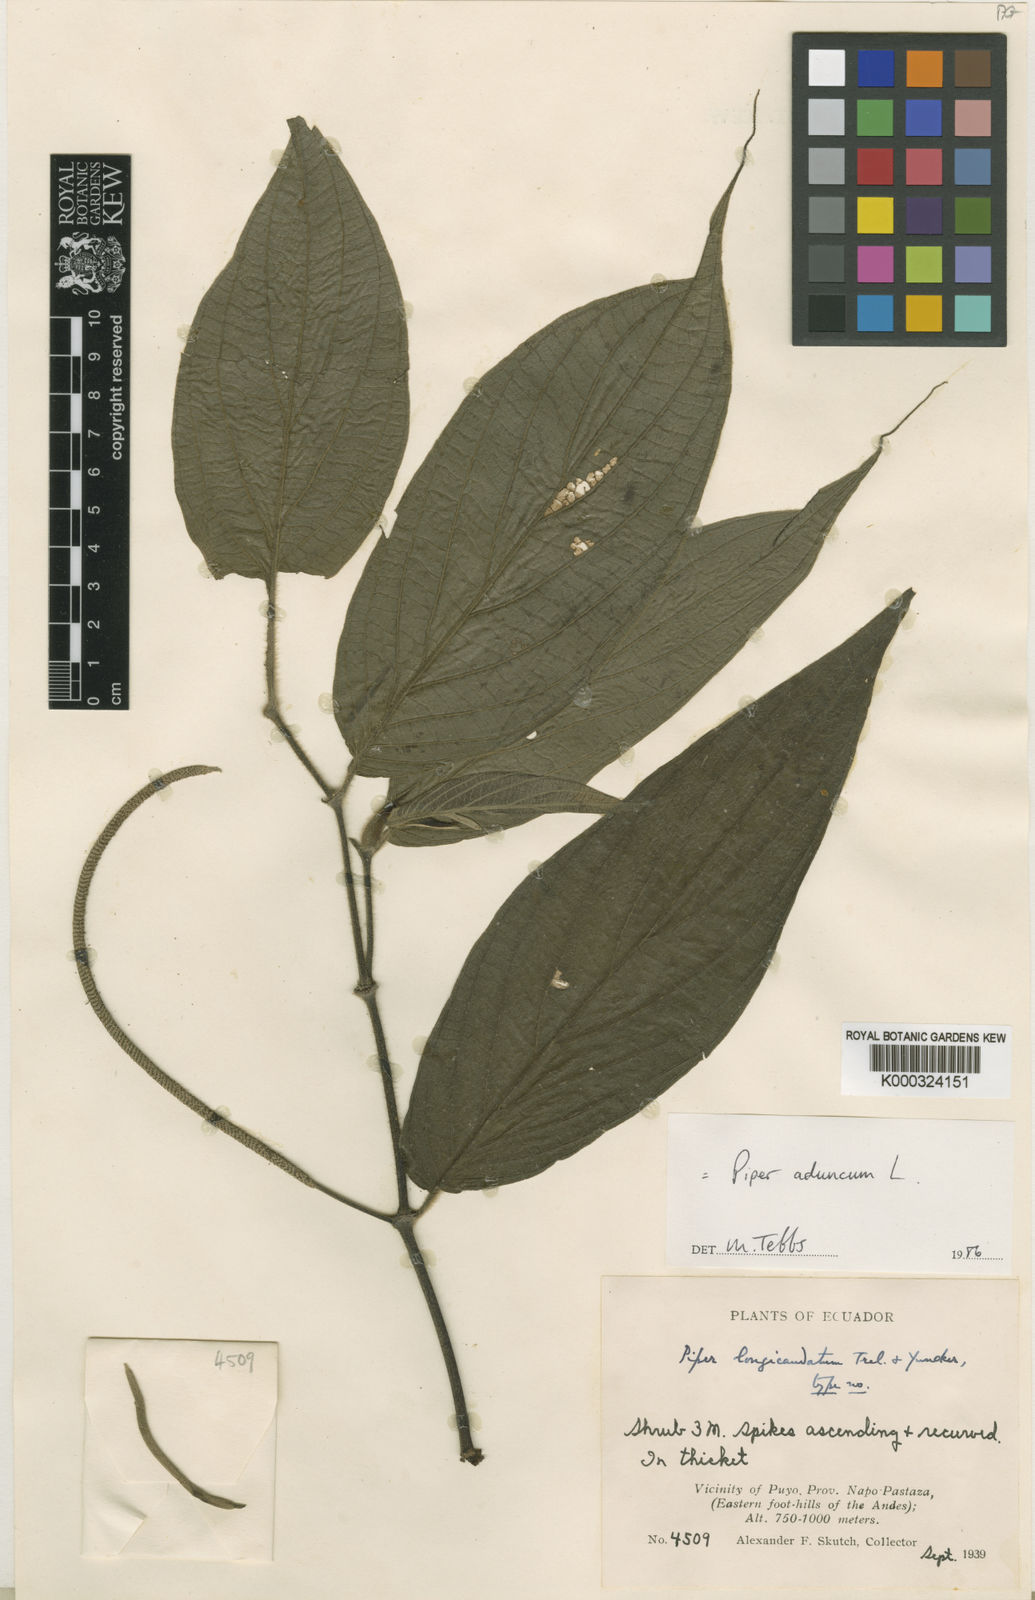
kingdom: Plantae
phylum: Tracheophyta
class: Magnoliopsida
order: Piperales
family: Piperaceae
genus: Piper
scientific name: Piper aduncum
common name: Spiked pepper
